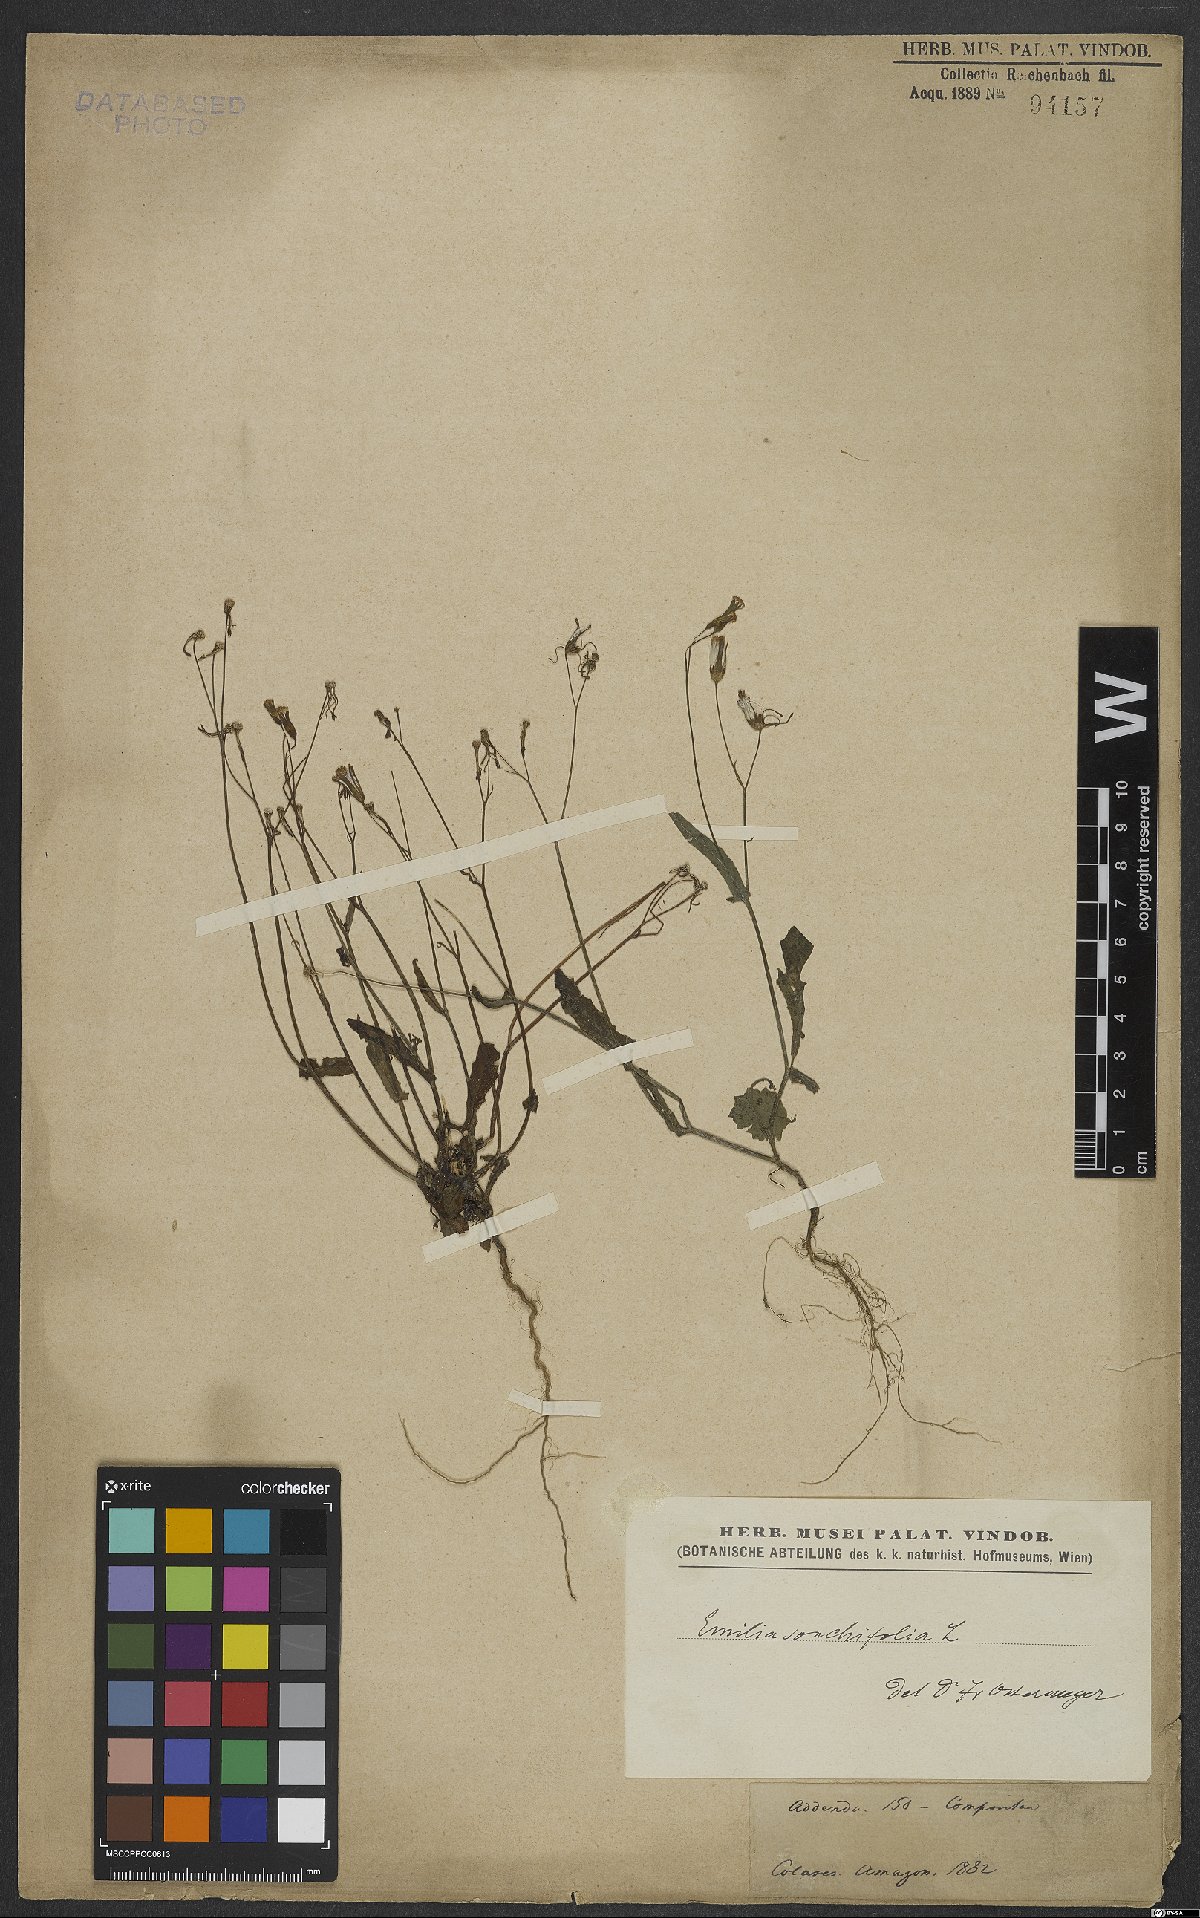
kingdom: Plantae
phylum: Tracheophyta
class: Magnoliopsida
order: Asterales
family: Asteraceae
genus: Emilia
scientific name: Emilia sonchifolia
